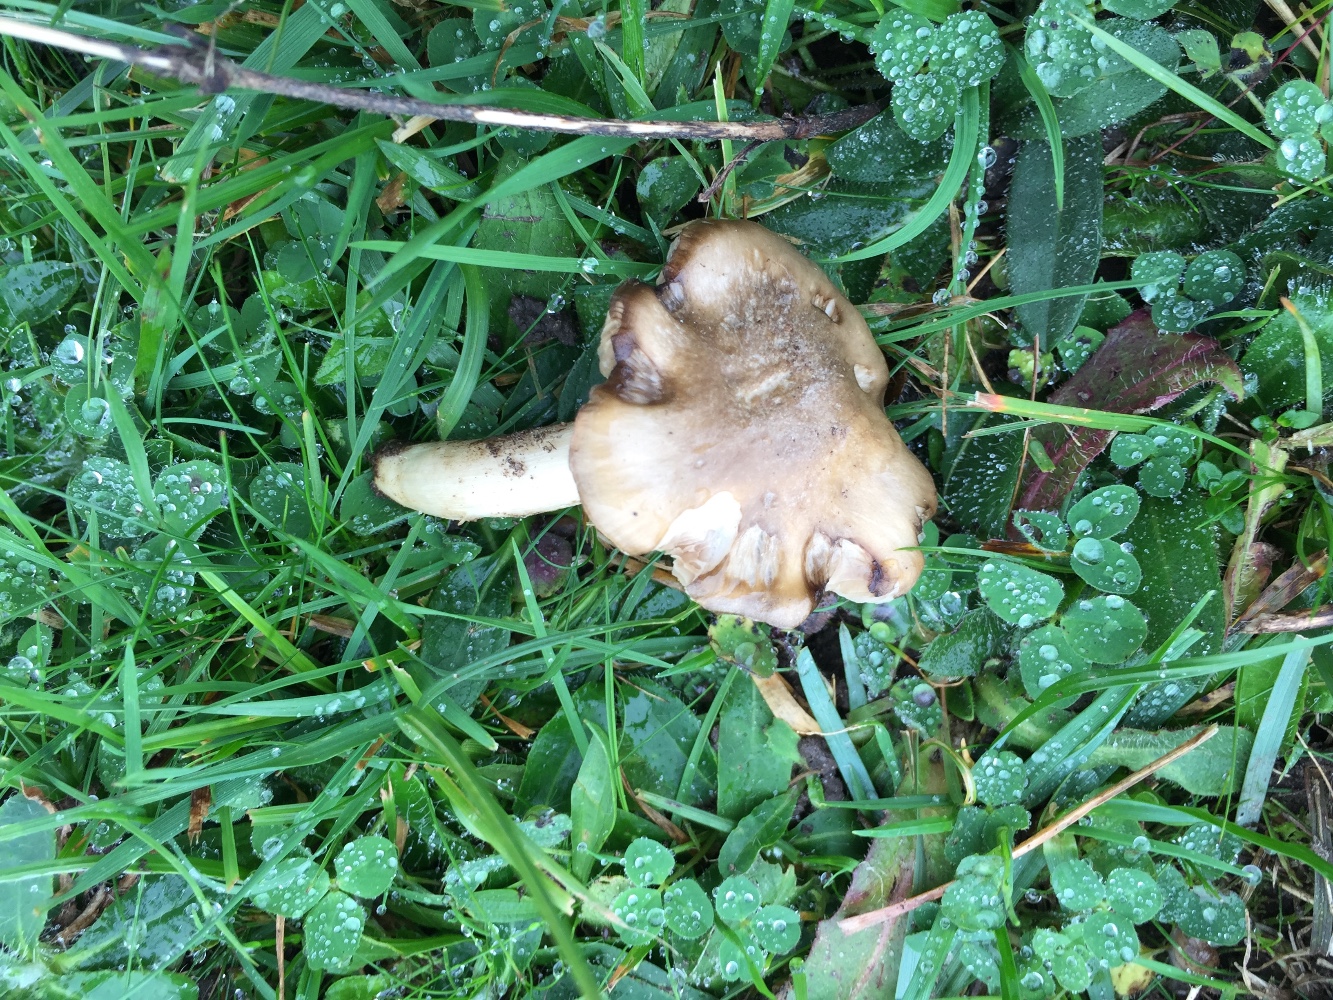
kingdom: Fungi
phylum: Basidiomycota
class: Agaricomycetes
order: Agaricales
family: Entolomataceae
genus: Entoloma
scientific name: Entoloma prunuloides
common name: mel-rødblad
